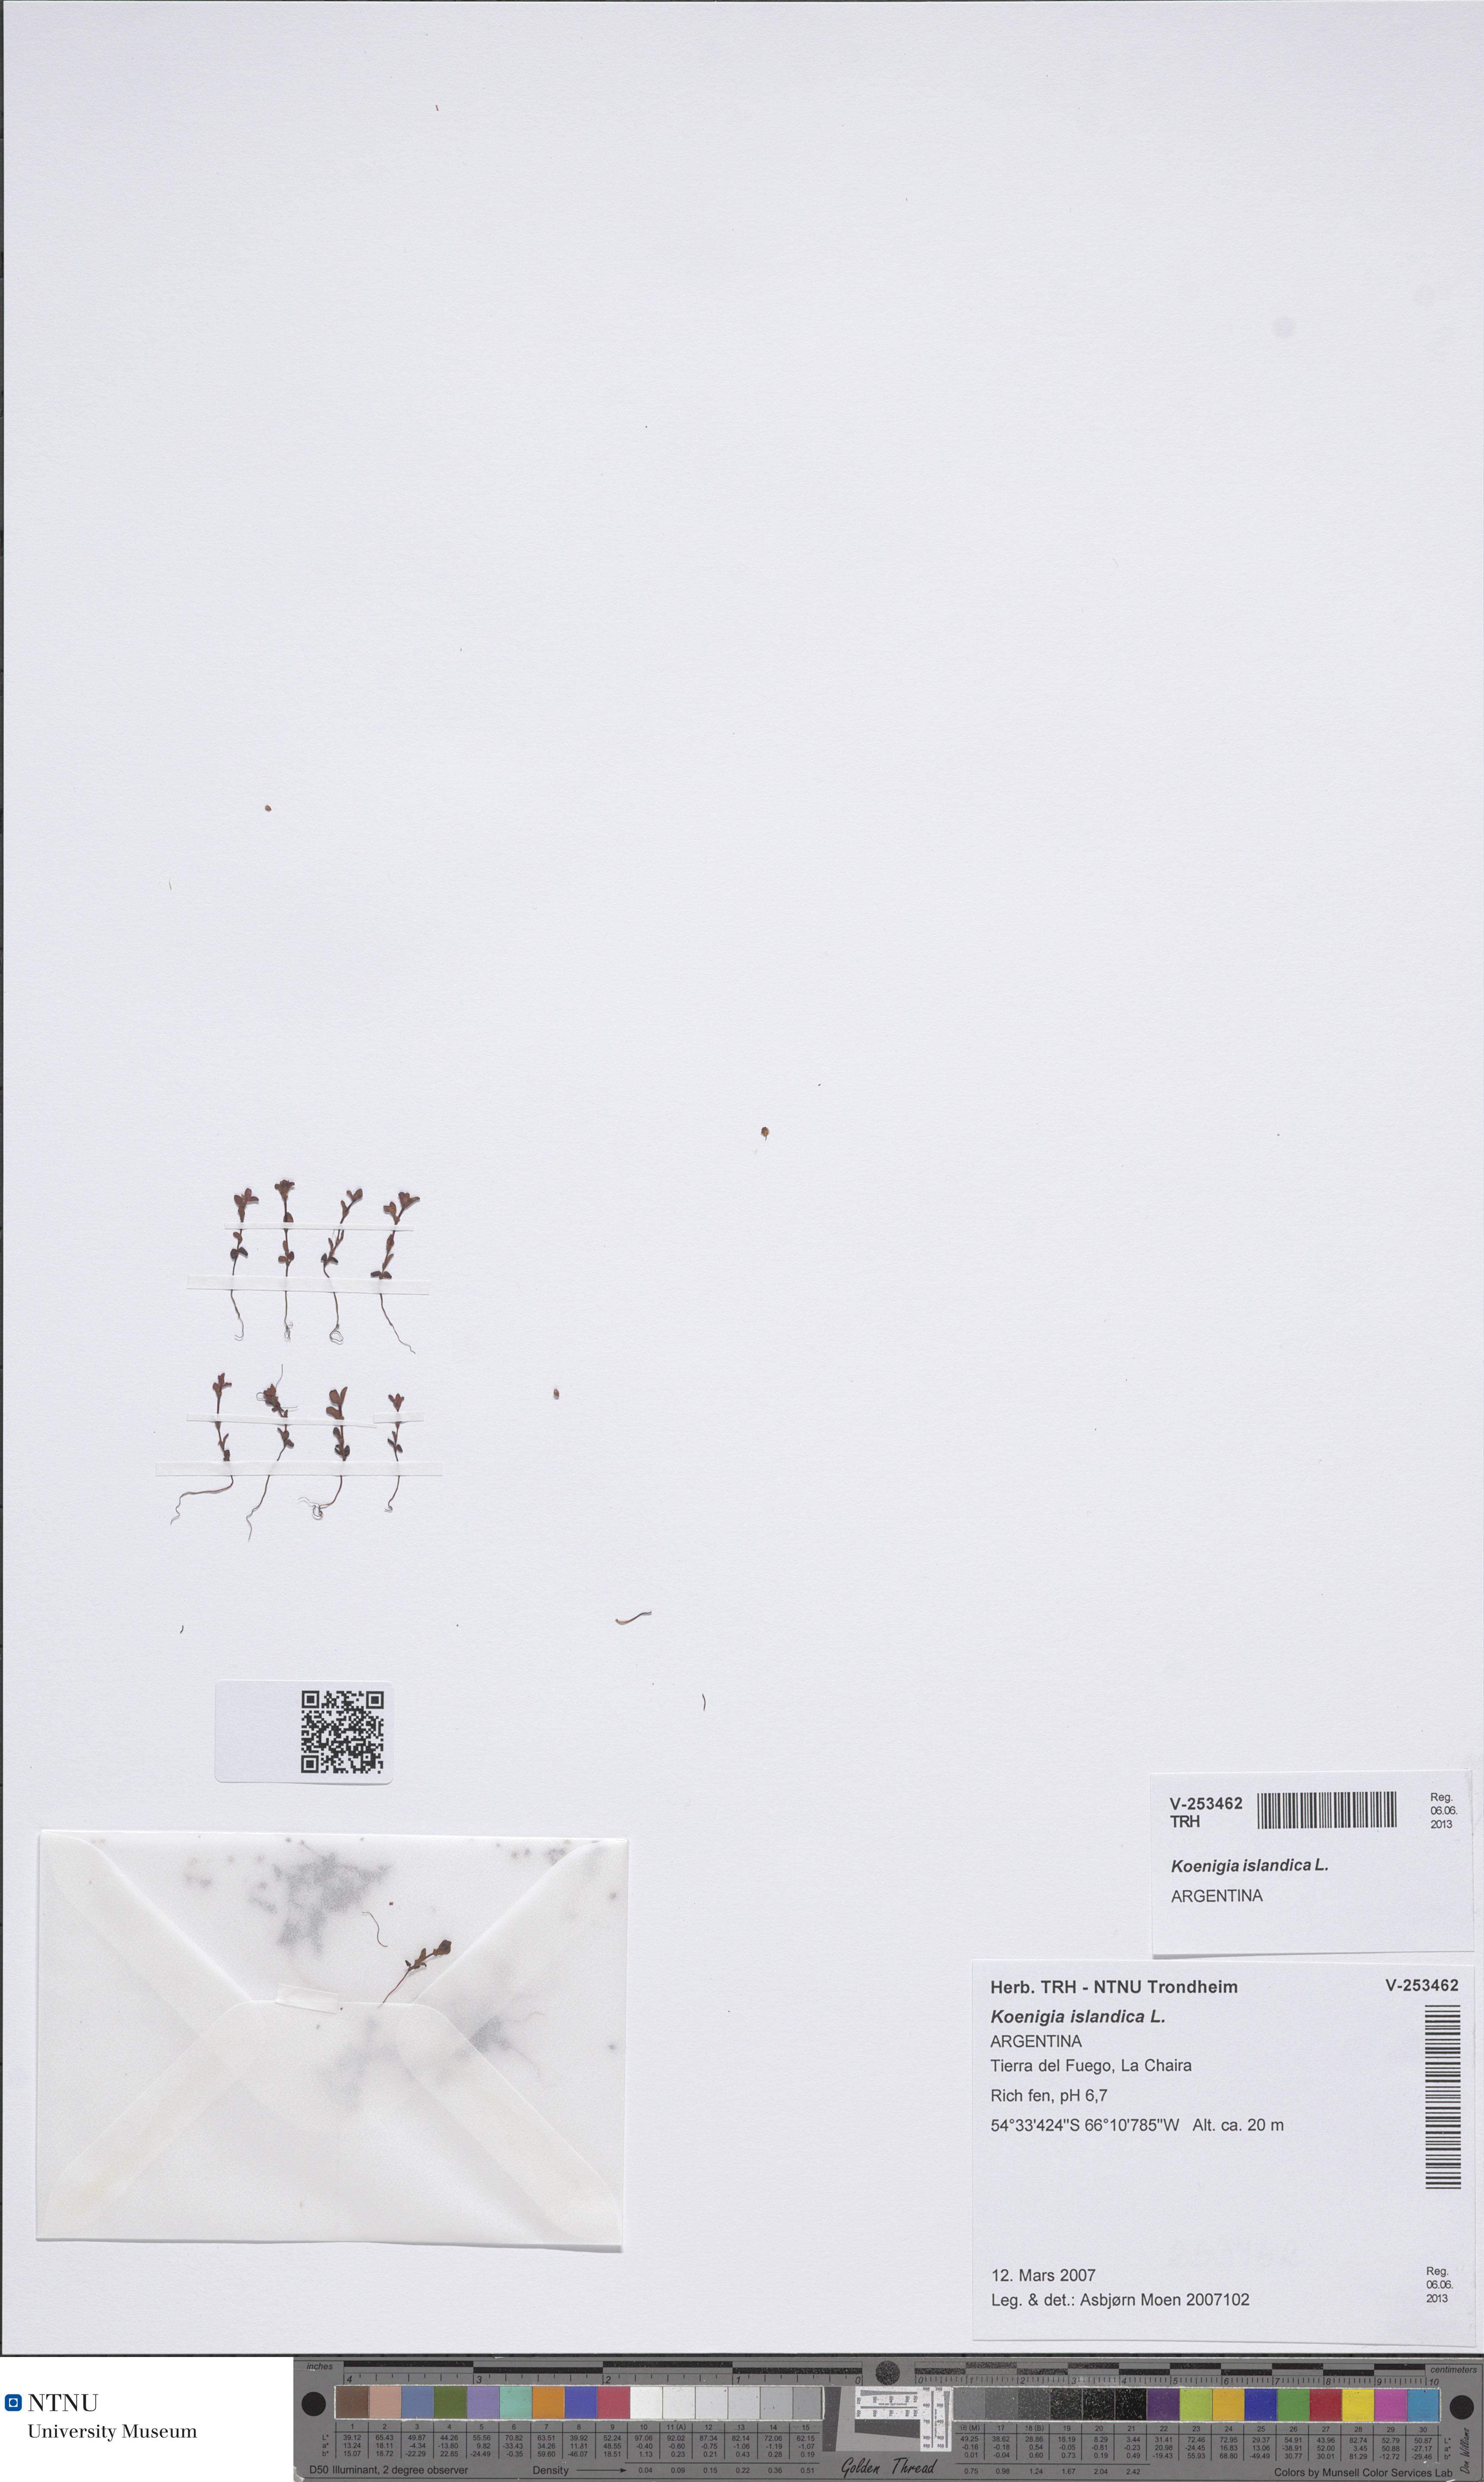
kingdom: Plantae
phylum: Tracheophyta
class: Magnoliopsida
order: Caryophyllales
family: Polygonaceae
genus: Koenigia
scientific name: Koenigia islandica
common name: Iceland-purslane
